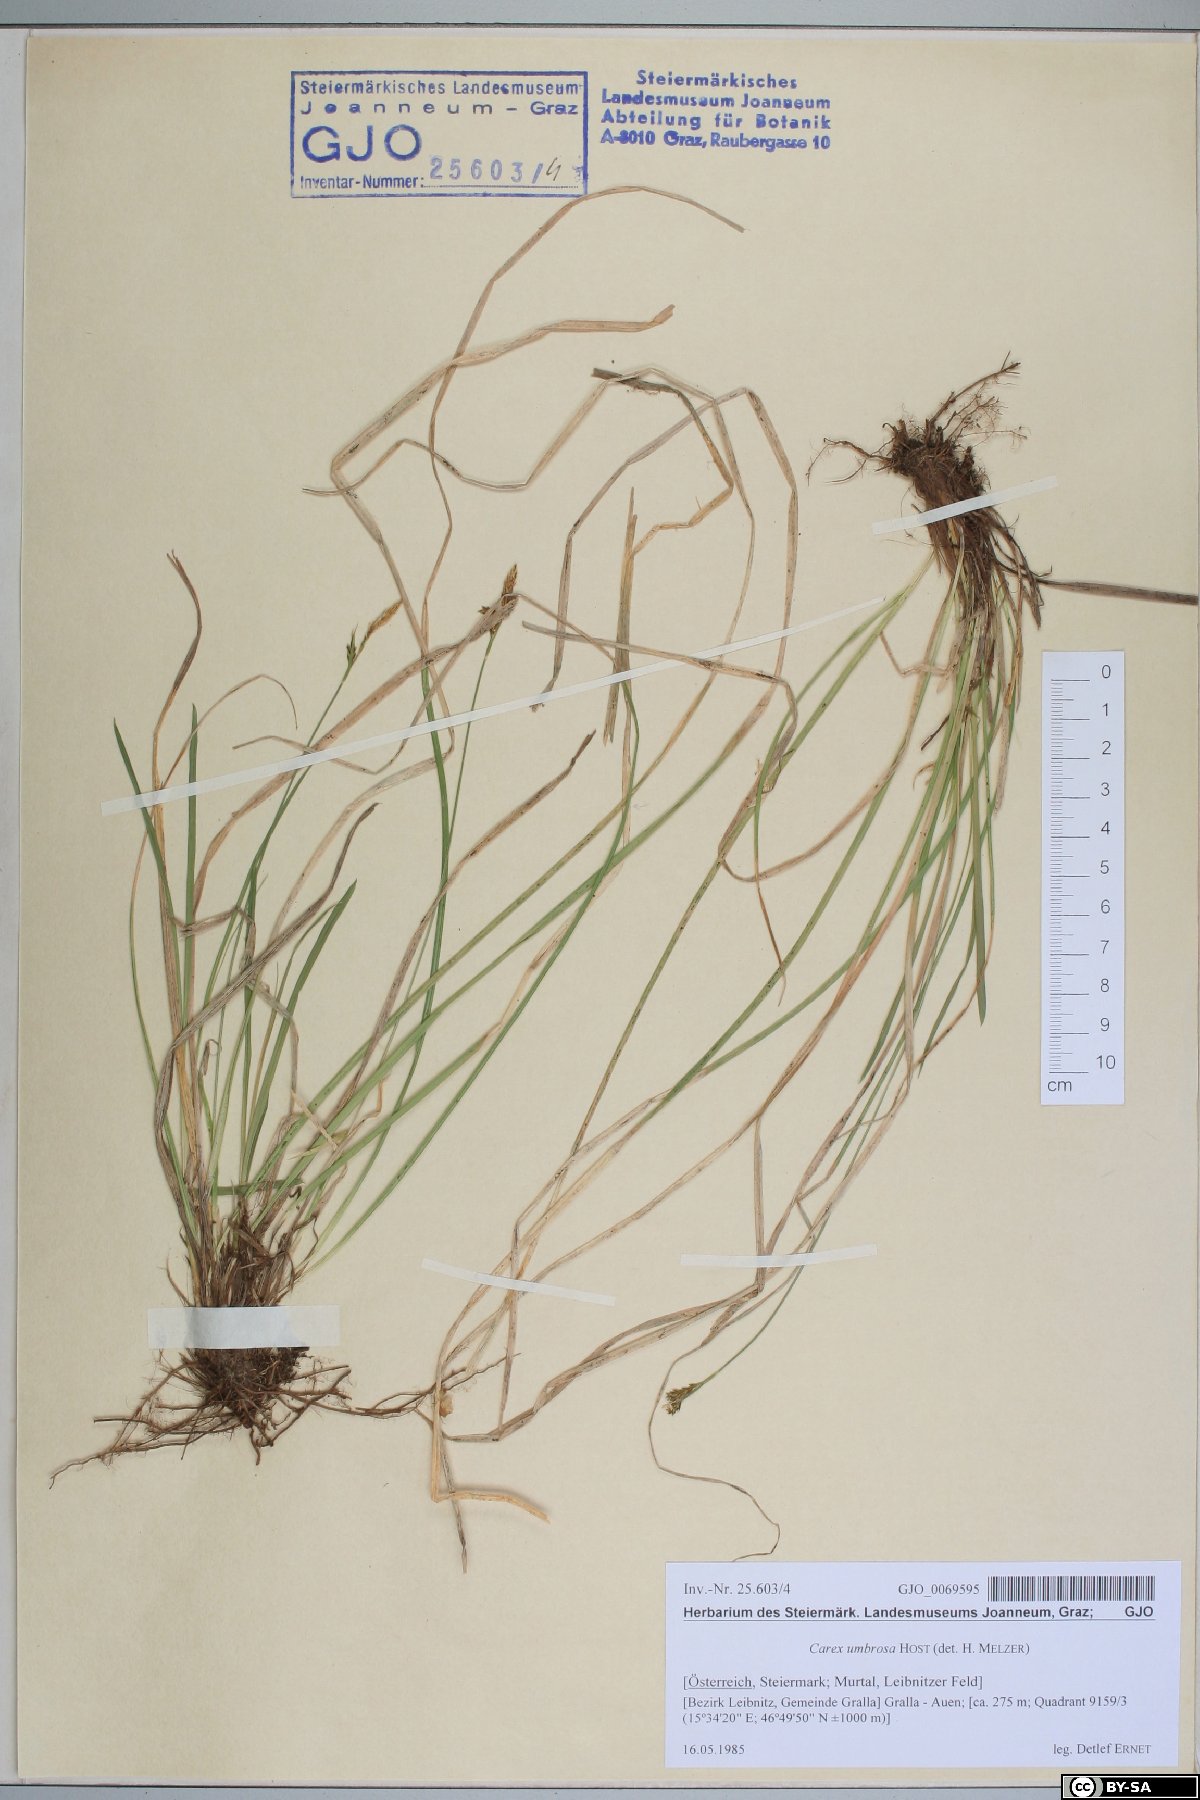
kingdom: Plantae
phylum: Tracheophyta
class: Liliopsida
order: Poales
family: Cyperaceae
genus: Carex
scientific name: Carex umbrosa
